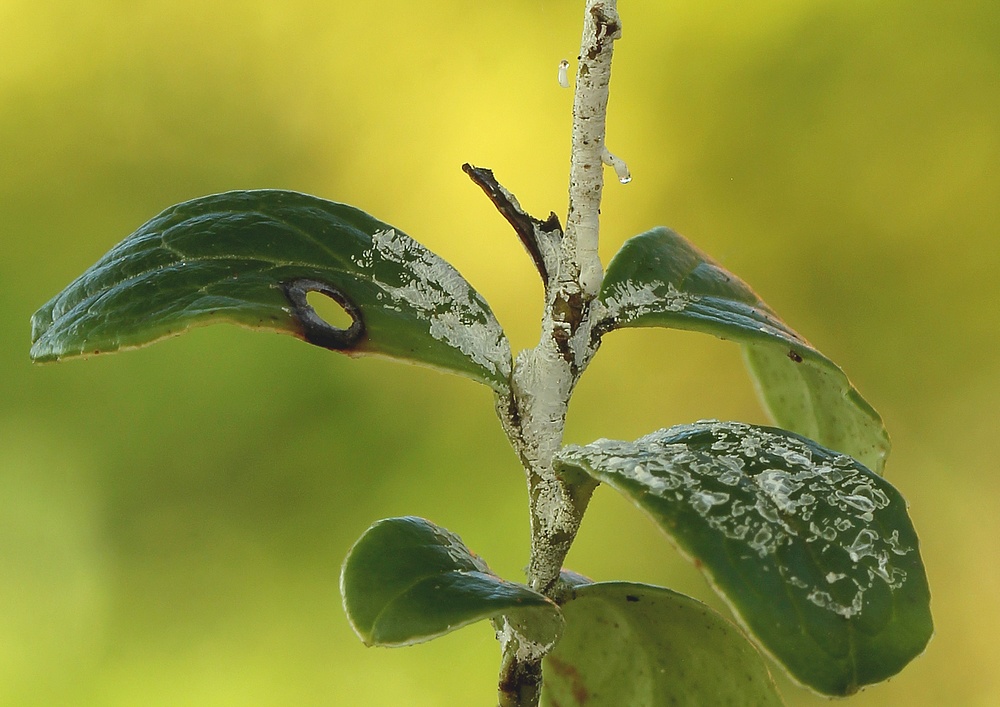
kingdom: Fungi
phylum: Basidiomycota
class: Exobasidiomycetes
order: Exobasidiales
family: Exobasidiaceae
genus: Exobasidium
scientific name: Exobasidium
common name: bøllesvamp
